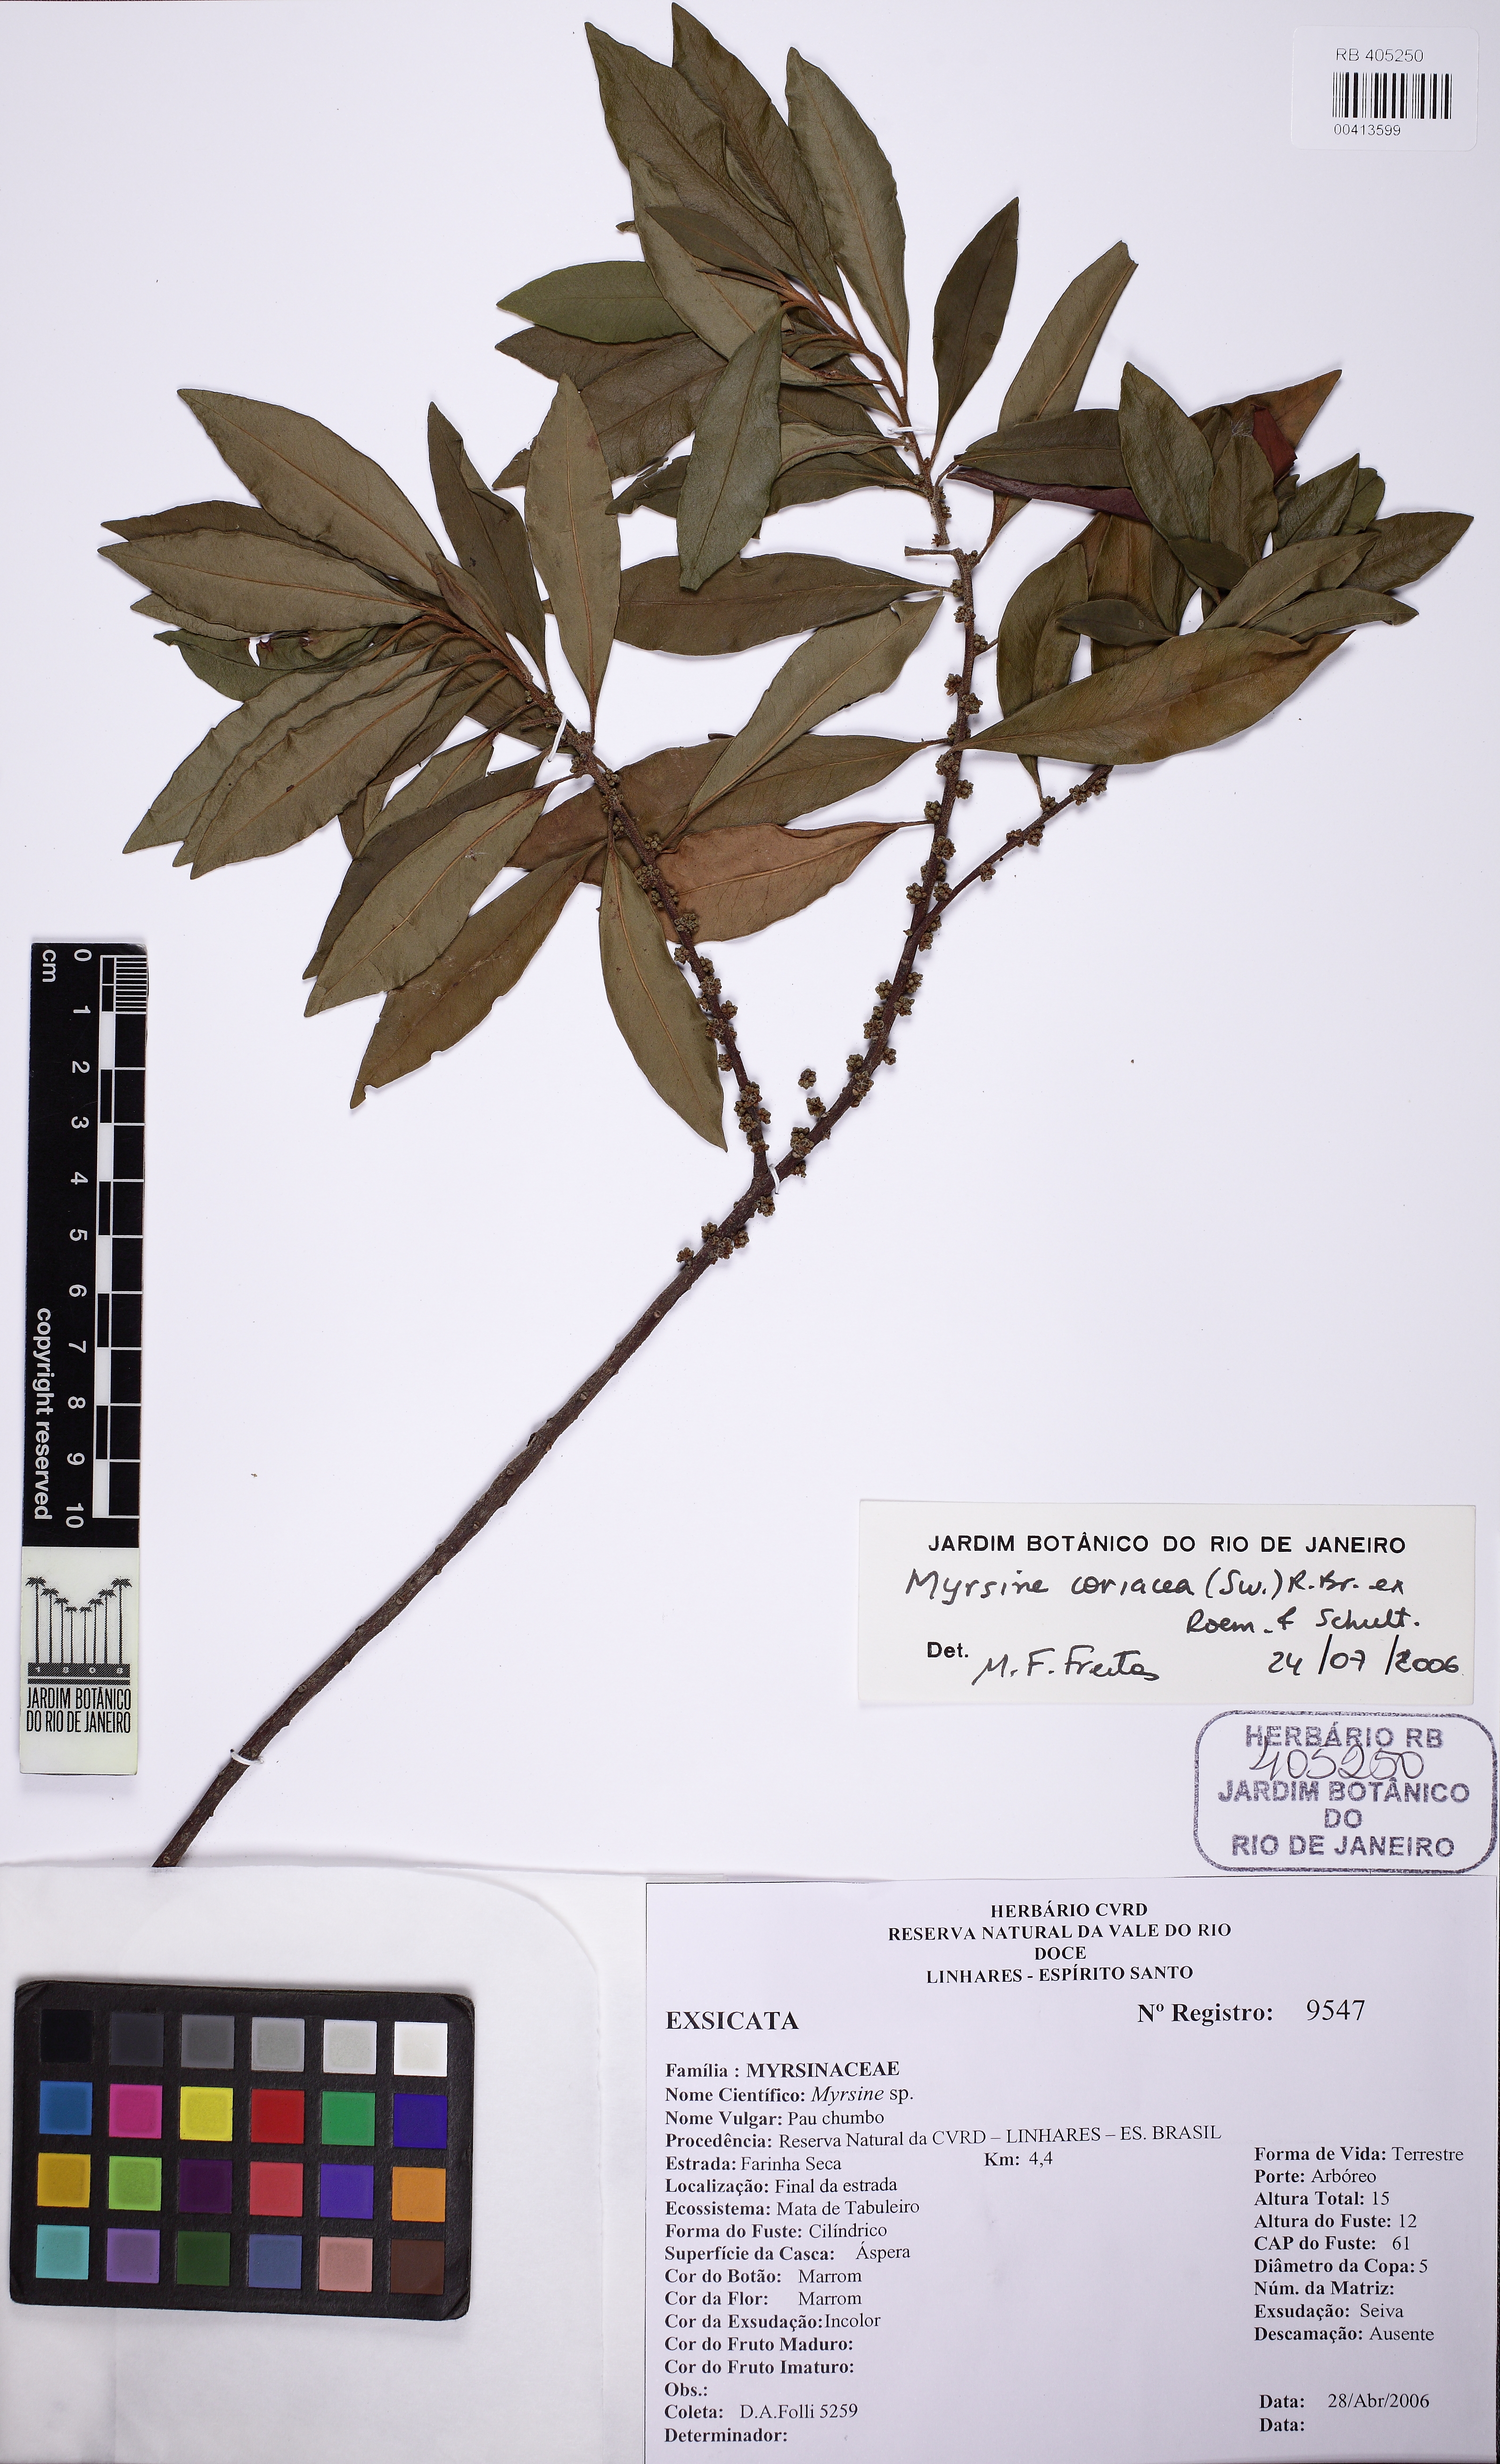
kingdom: Plantae
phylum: Tracheophyta
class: Magnoliopsida
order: Ericales
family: Primulaceae
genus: Myrsine
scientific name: Myrsine coriacea
